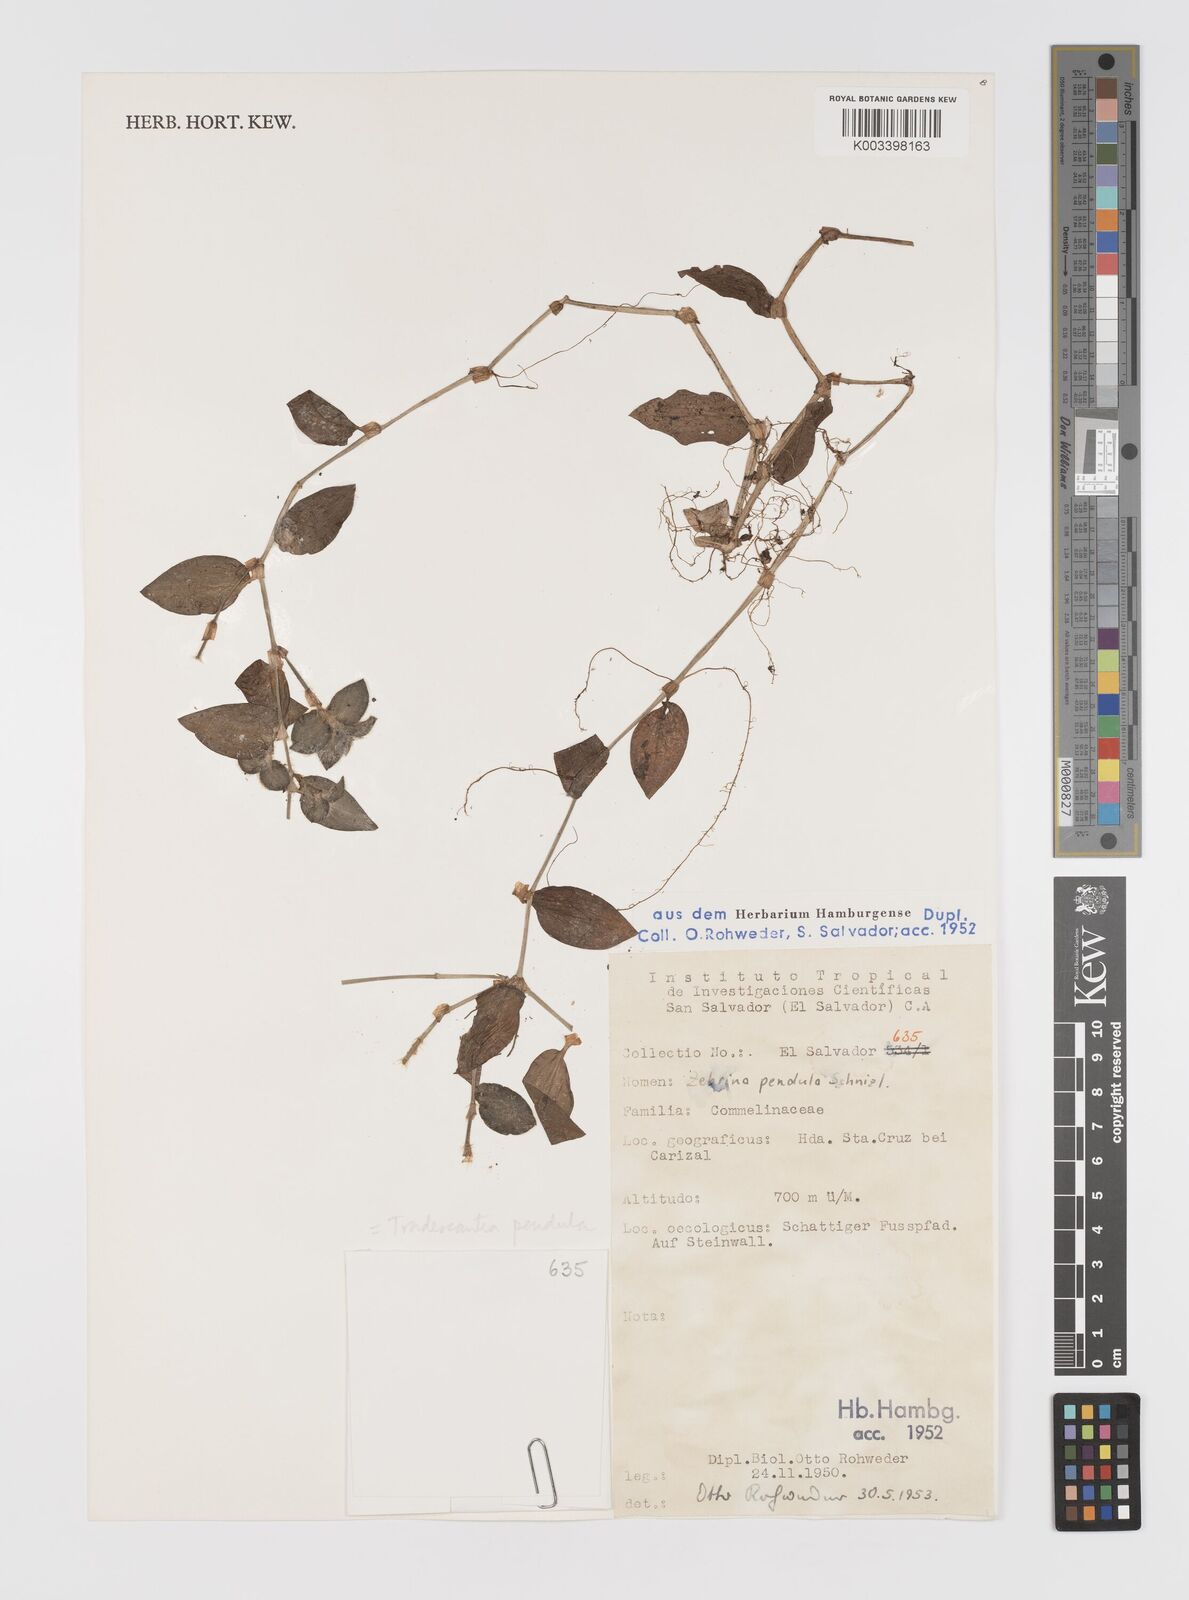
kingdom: Plantae
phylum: Tracheophyta
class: Liliopsida
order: Commelinales
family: Commelinaceae
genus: Tradescantia
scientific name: Tradescantia zebrina
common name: Inchplant
